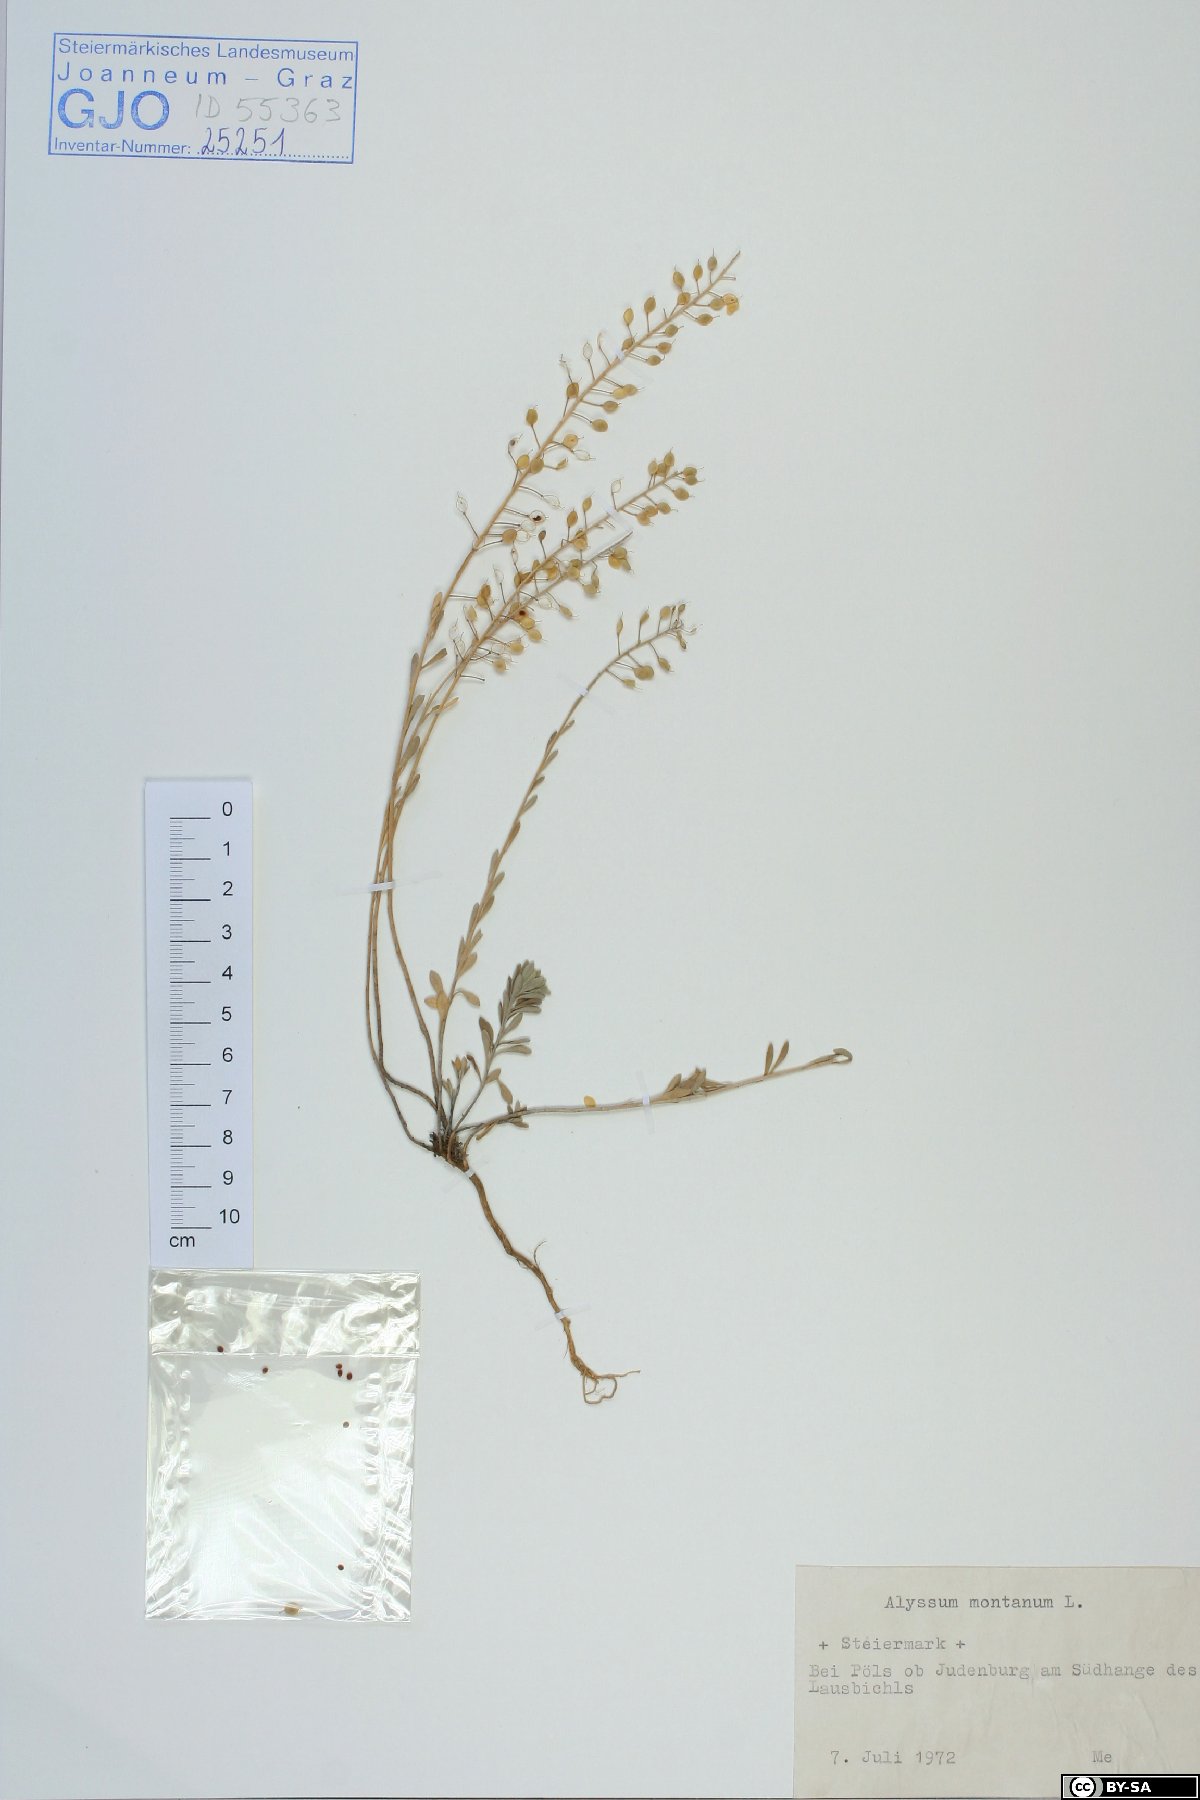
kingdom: Plantae
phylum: Tracheophyta
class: Magnoliopsida
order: Brassicales
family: Brassicaceae
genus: Alyssum
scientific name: Alyssum montanum
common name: Mountain alison
